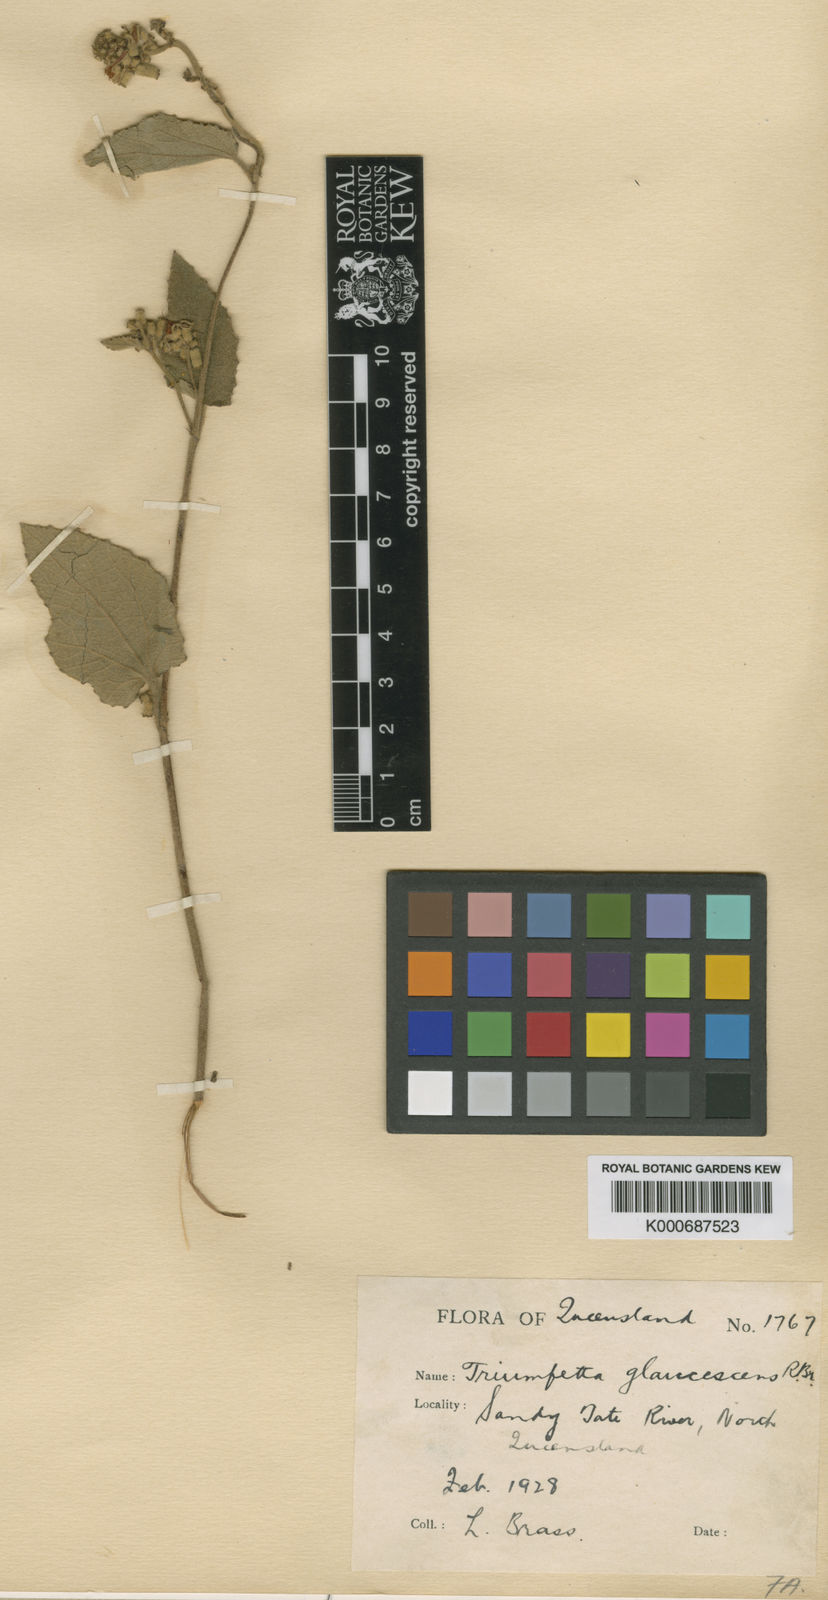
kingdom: Plantae
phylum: Tracheophyta
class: Magnoliopsida
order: Malvales
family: Malvaceae
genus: Triumfetta
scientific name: Triumfetta glaucescens
